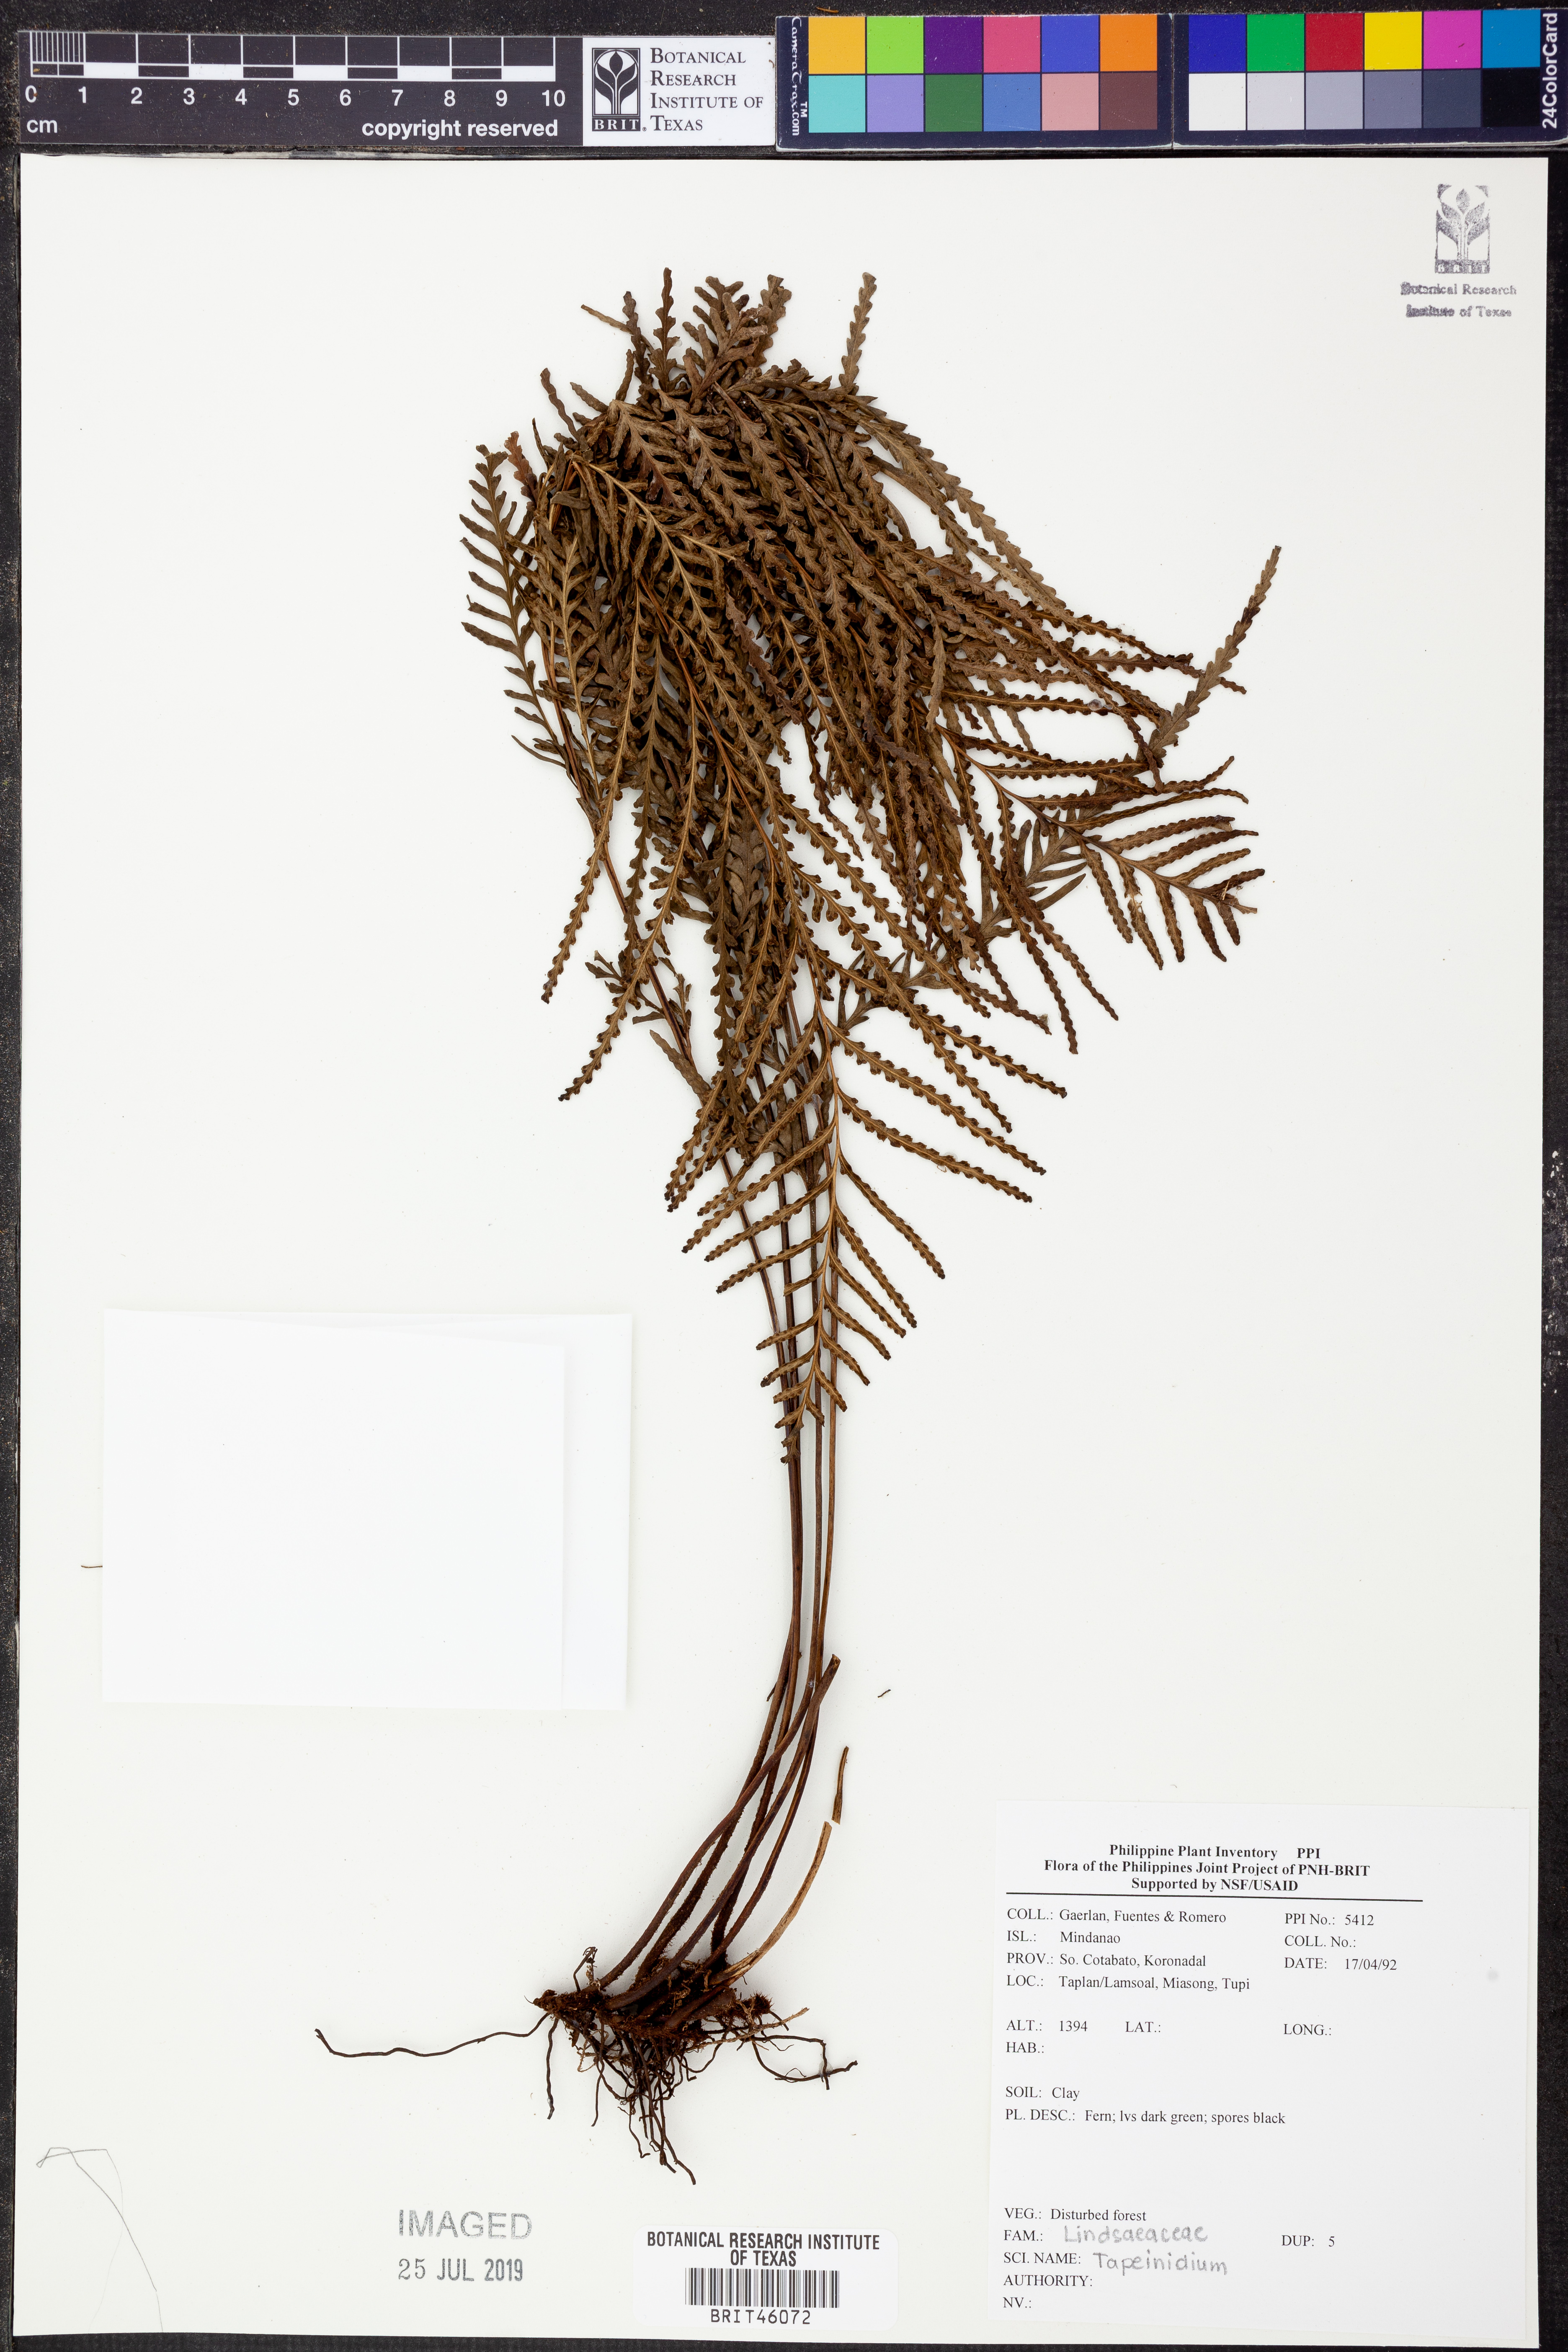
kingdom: Plantae
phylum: Tracheophyta
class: Polypodiopsida
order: Polypodiales
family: Lindsaeaceae
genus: Tapeinidium
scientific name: Tapeinidium
